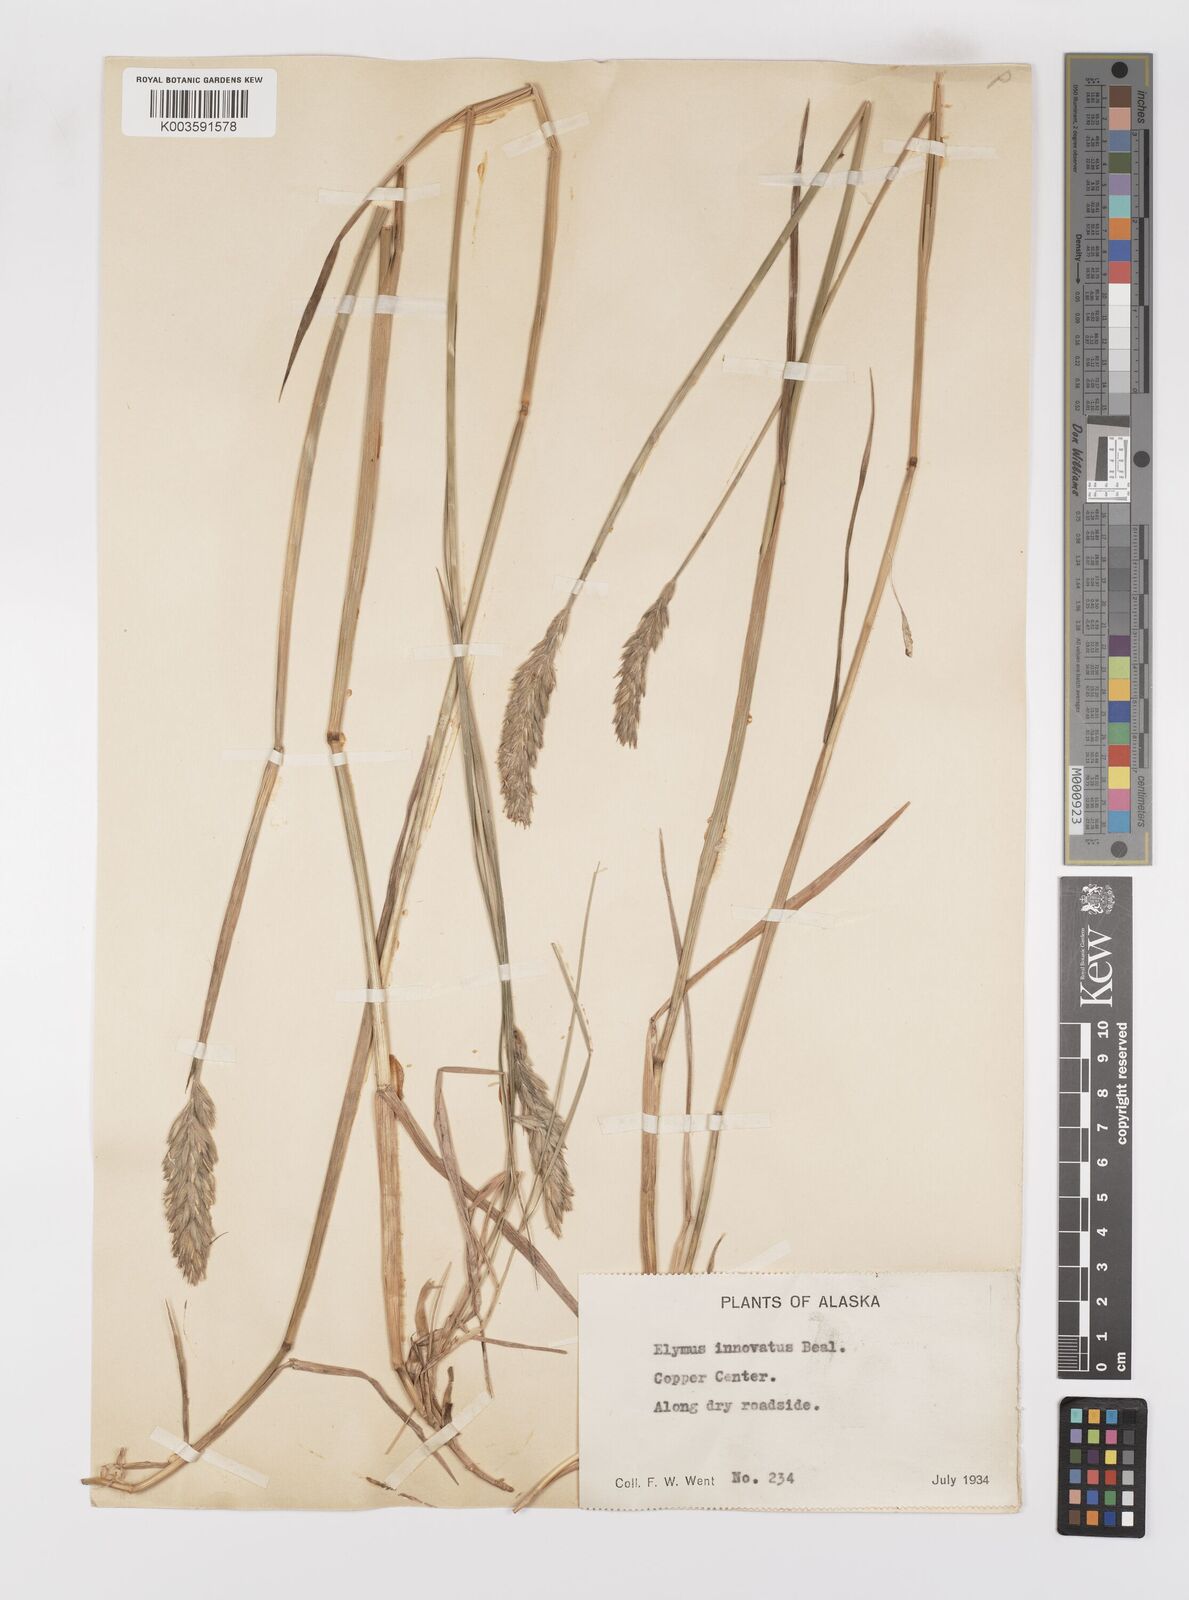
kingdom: Plantae
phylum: Tracheophyta
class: Liliopsida
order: Poales
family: Poaceae
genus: Leymus
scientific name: Leymus innovatus
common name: Boreal wild rye
